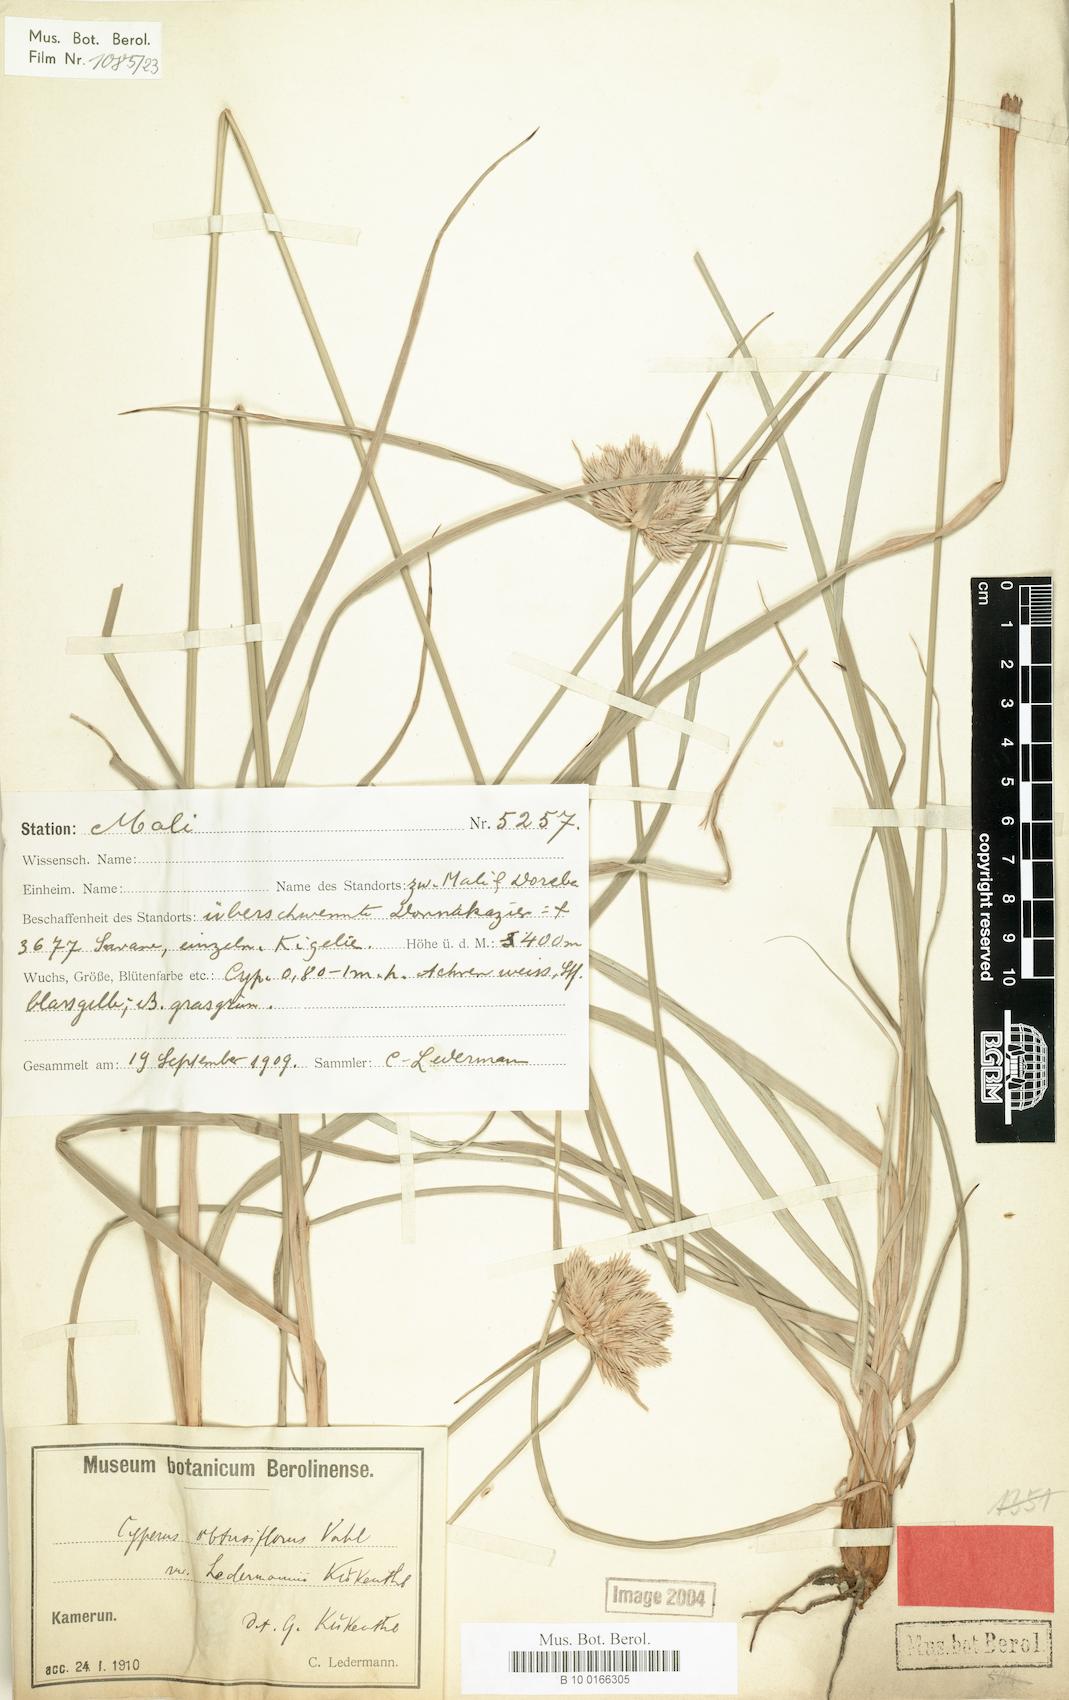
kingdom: Plantae
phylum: Tracheophyta
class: Liliopsida
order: Poales
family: Cyperaceae
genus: Cyperus
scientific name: Cyperus niveus
